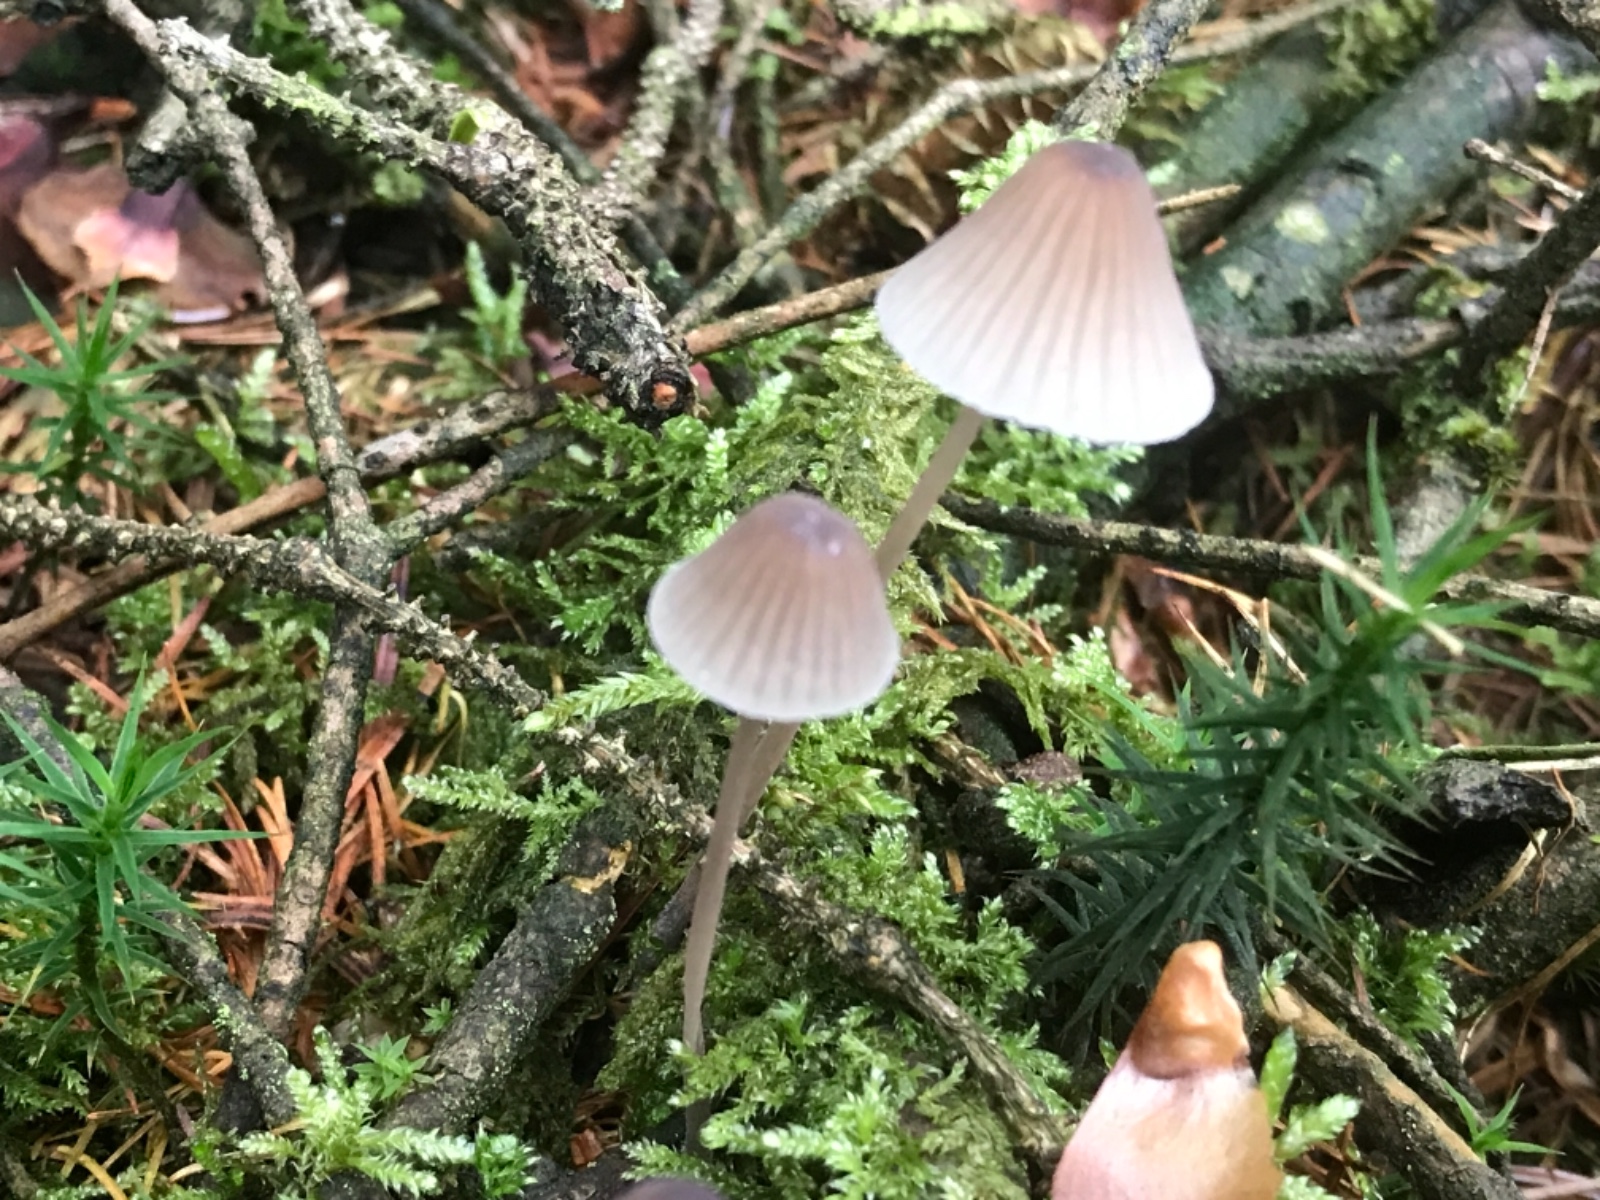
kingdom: Fungi
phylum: Basidiomycota
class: Agaricomycetes
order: Agaricales
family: Mycenaceae
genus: Mycena
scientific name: Mycena galopus
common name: hvidmælket huesvamp
